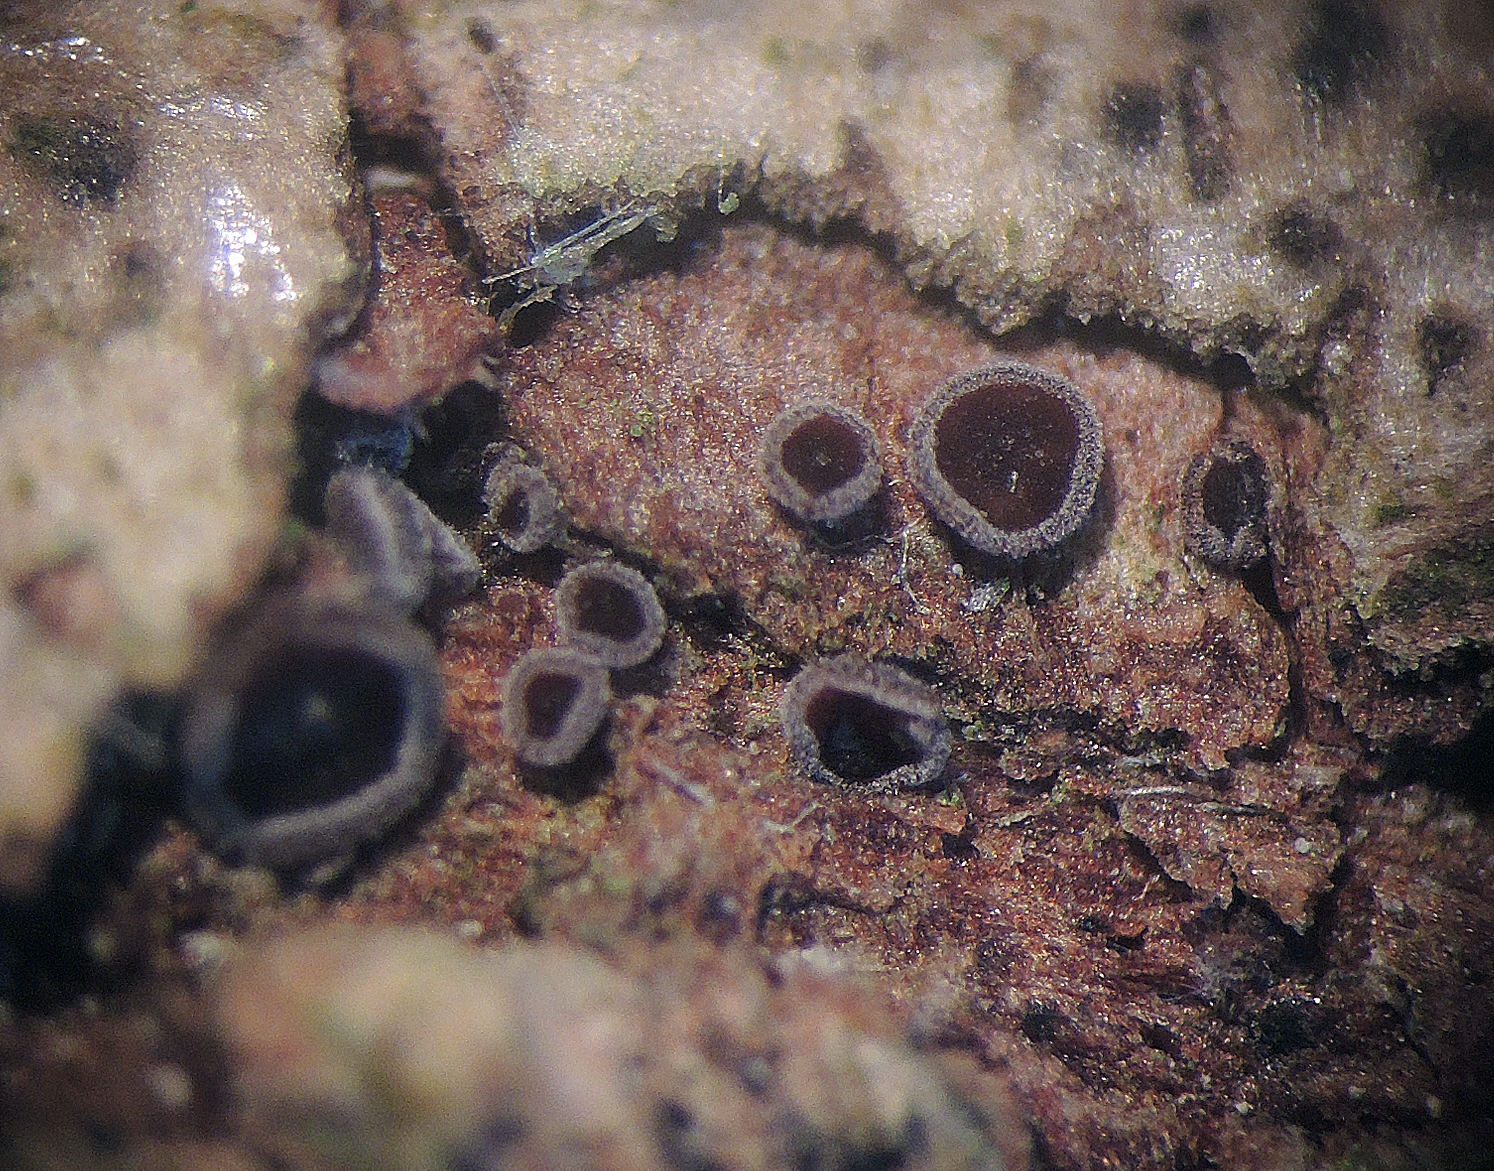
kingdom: Fungi
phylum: Ascomycota
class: Leotiomycetes
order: Helotiales
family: Hyaloscyphaceae
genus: Unguiculella
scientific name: Unguiculella robergei
